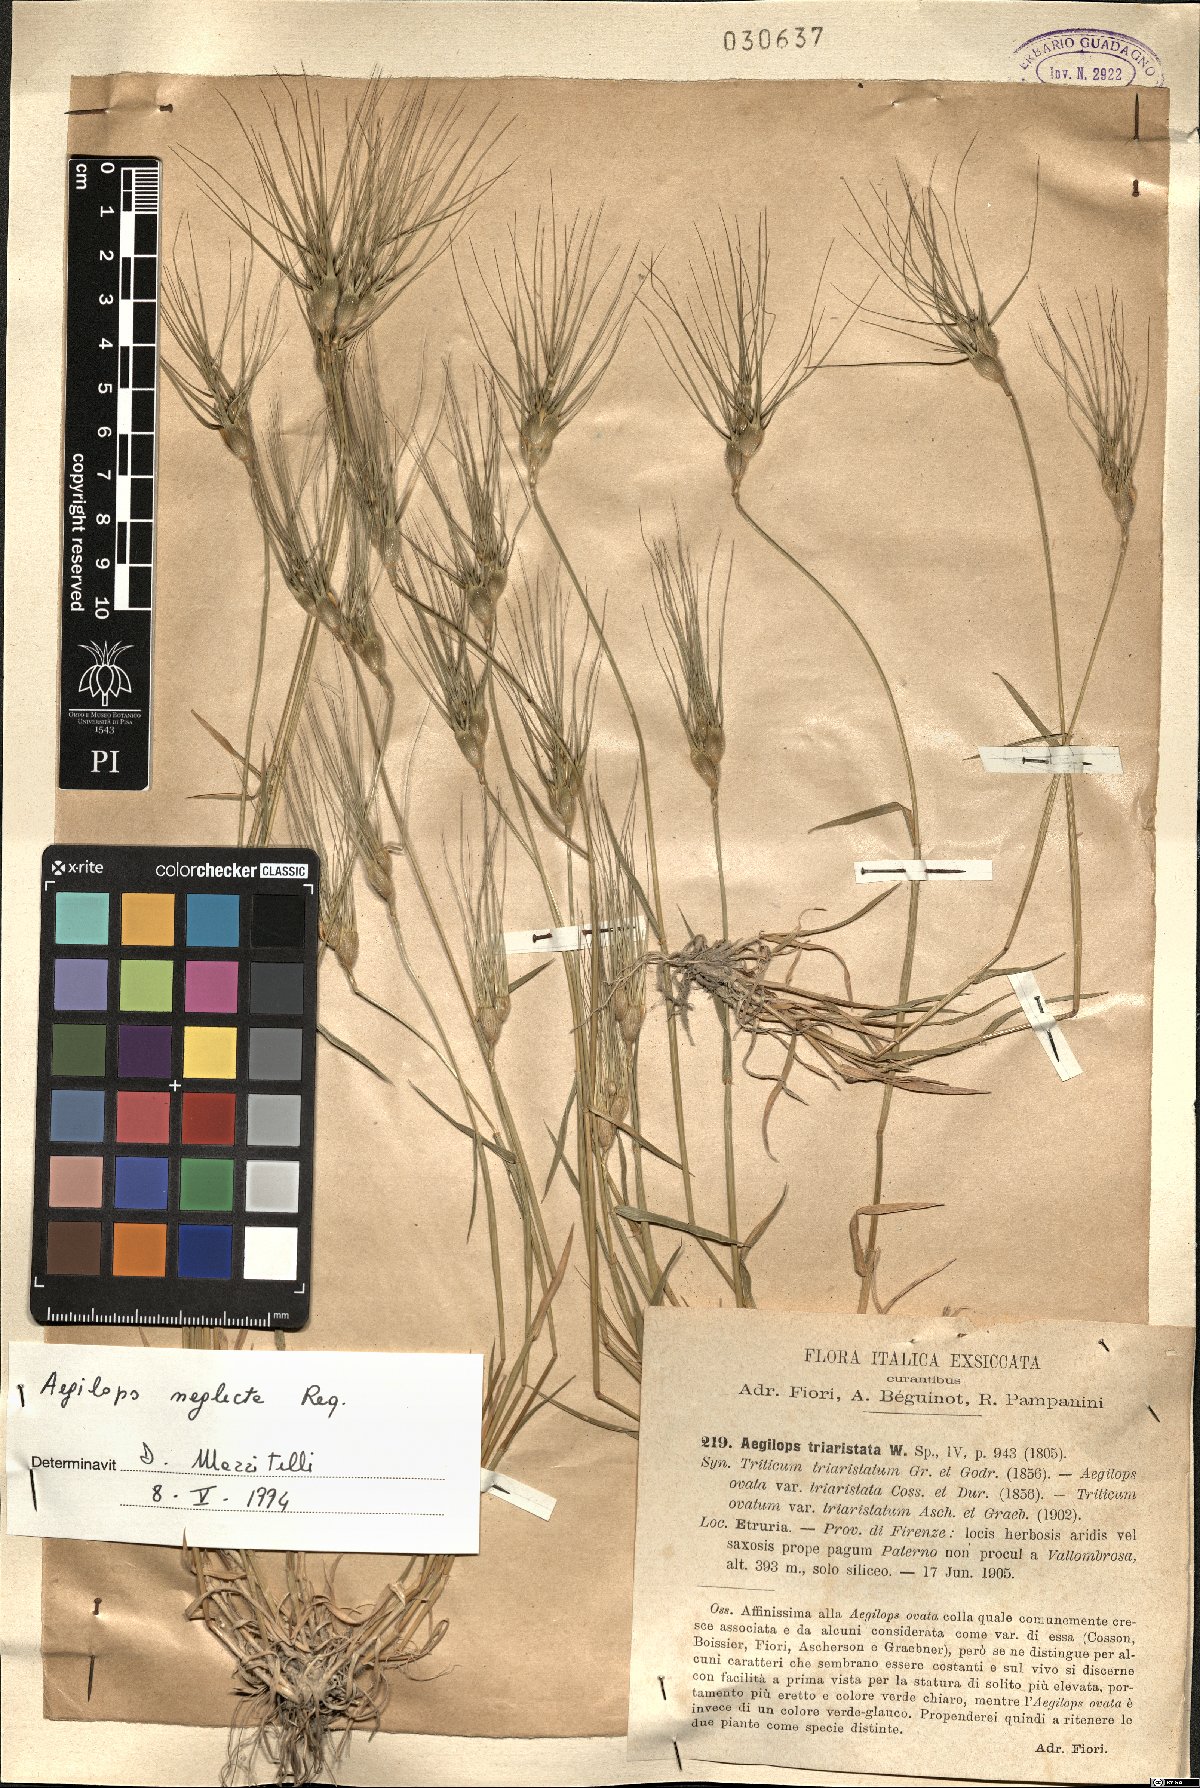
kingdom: Plantae
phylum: Tracheophyta
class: Liliopsida
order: Poales
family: Poaceae
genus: Aegilops
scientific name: Aegilops neglecta
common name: Three-awn goat grass
